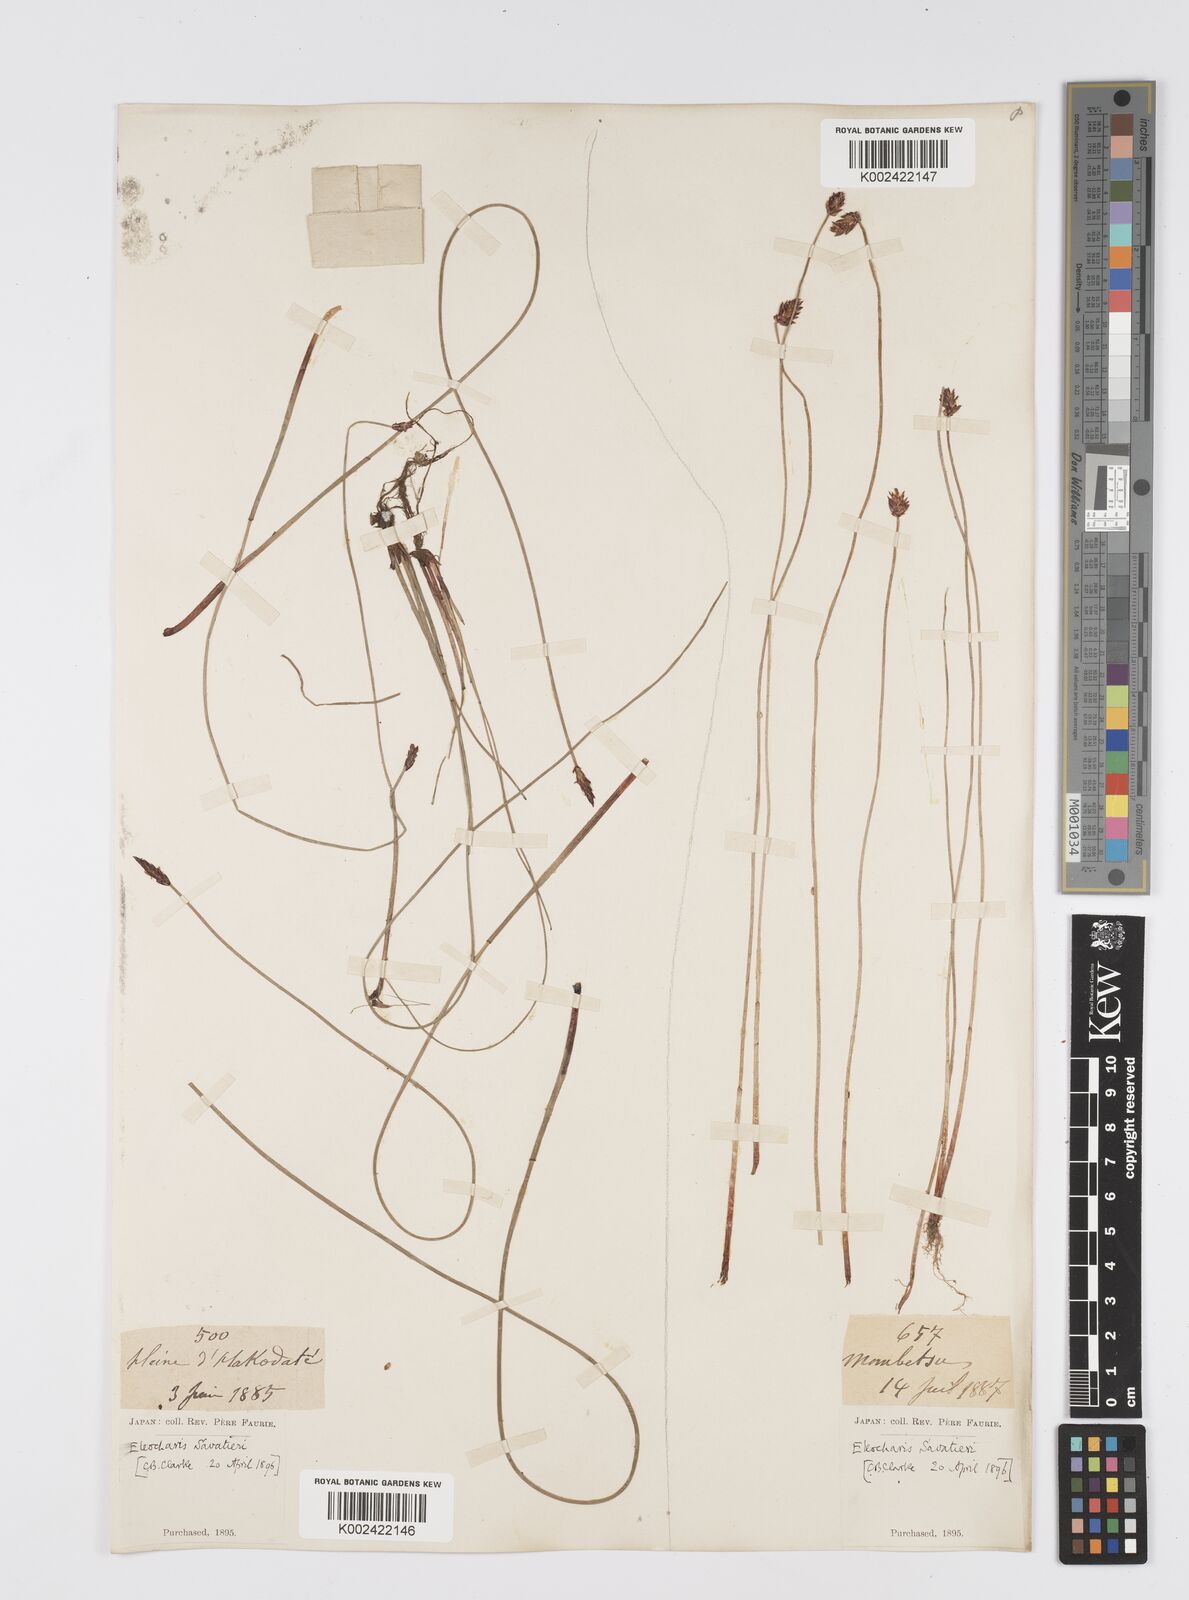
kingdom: Plantae
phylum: Tracheophyta
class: Liliopsida
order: Poales
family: Cyperaceae
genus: Eleocharis
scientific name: Eleocharis kamtschatica
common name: Kamchatka spikerush
